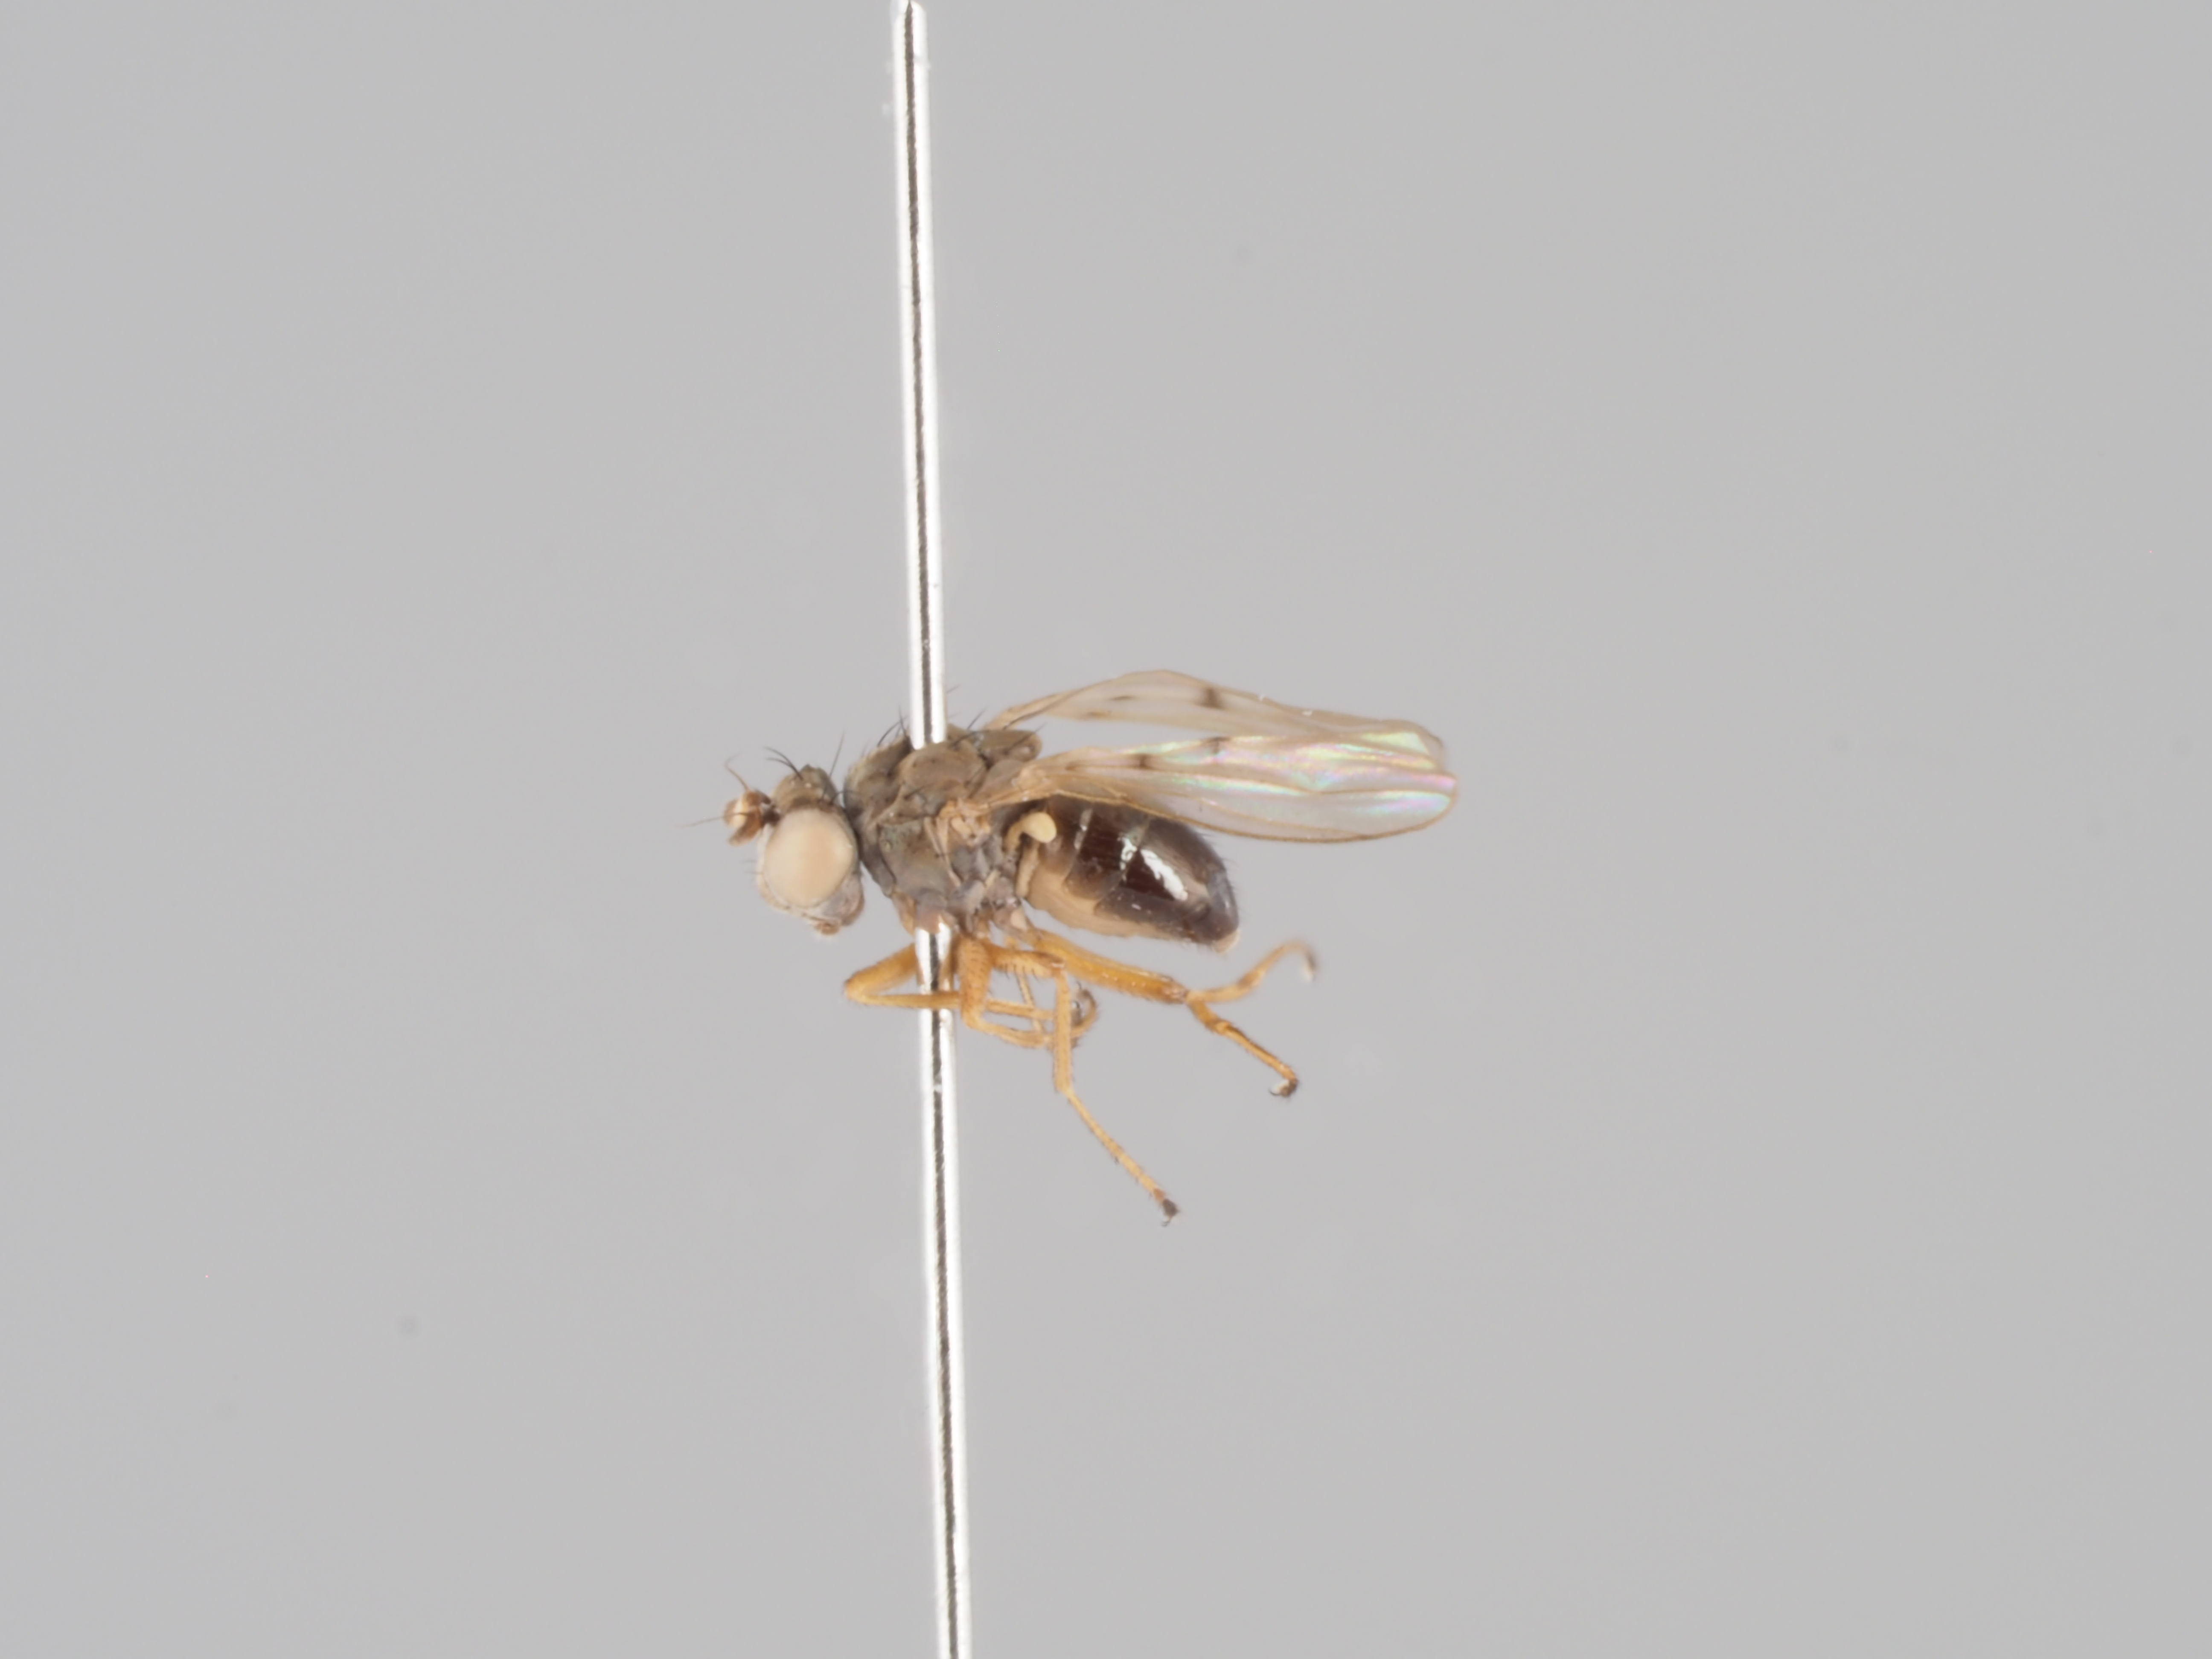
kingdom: Animalia
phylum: Arthropoda
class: Insecta
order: Diptera
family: Ephydridae
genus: Philygria
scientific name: Philygria vittipennis
